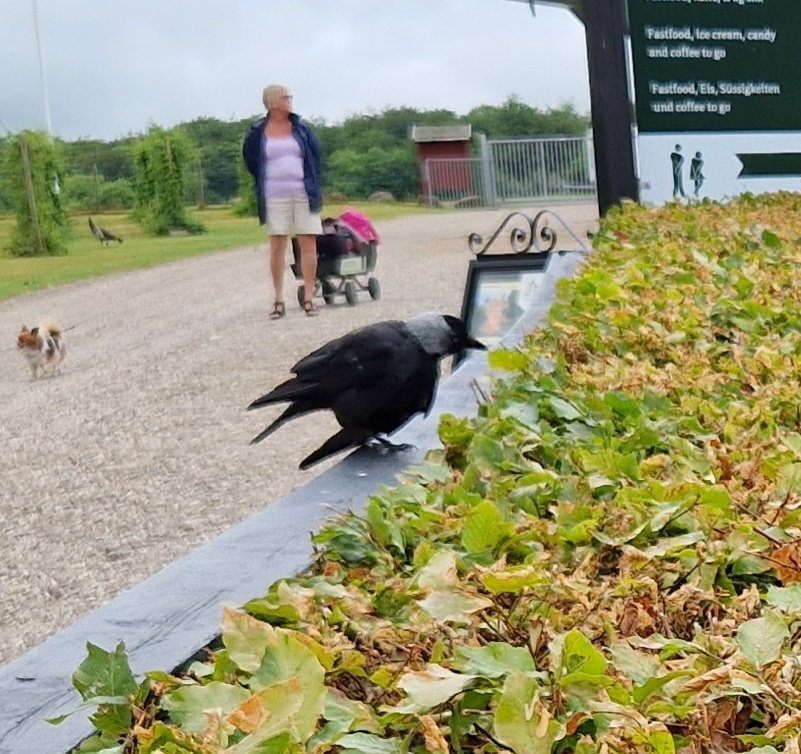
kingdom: Animalia
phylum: Chordata
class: Aves
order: Passeriformes
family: Corvidae
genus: Coloeus
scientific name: Coloeus monedula
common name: Allike
